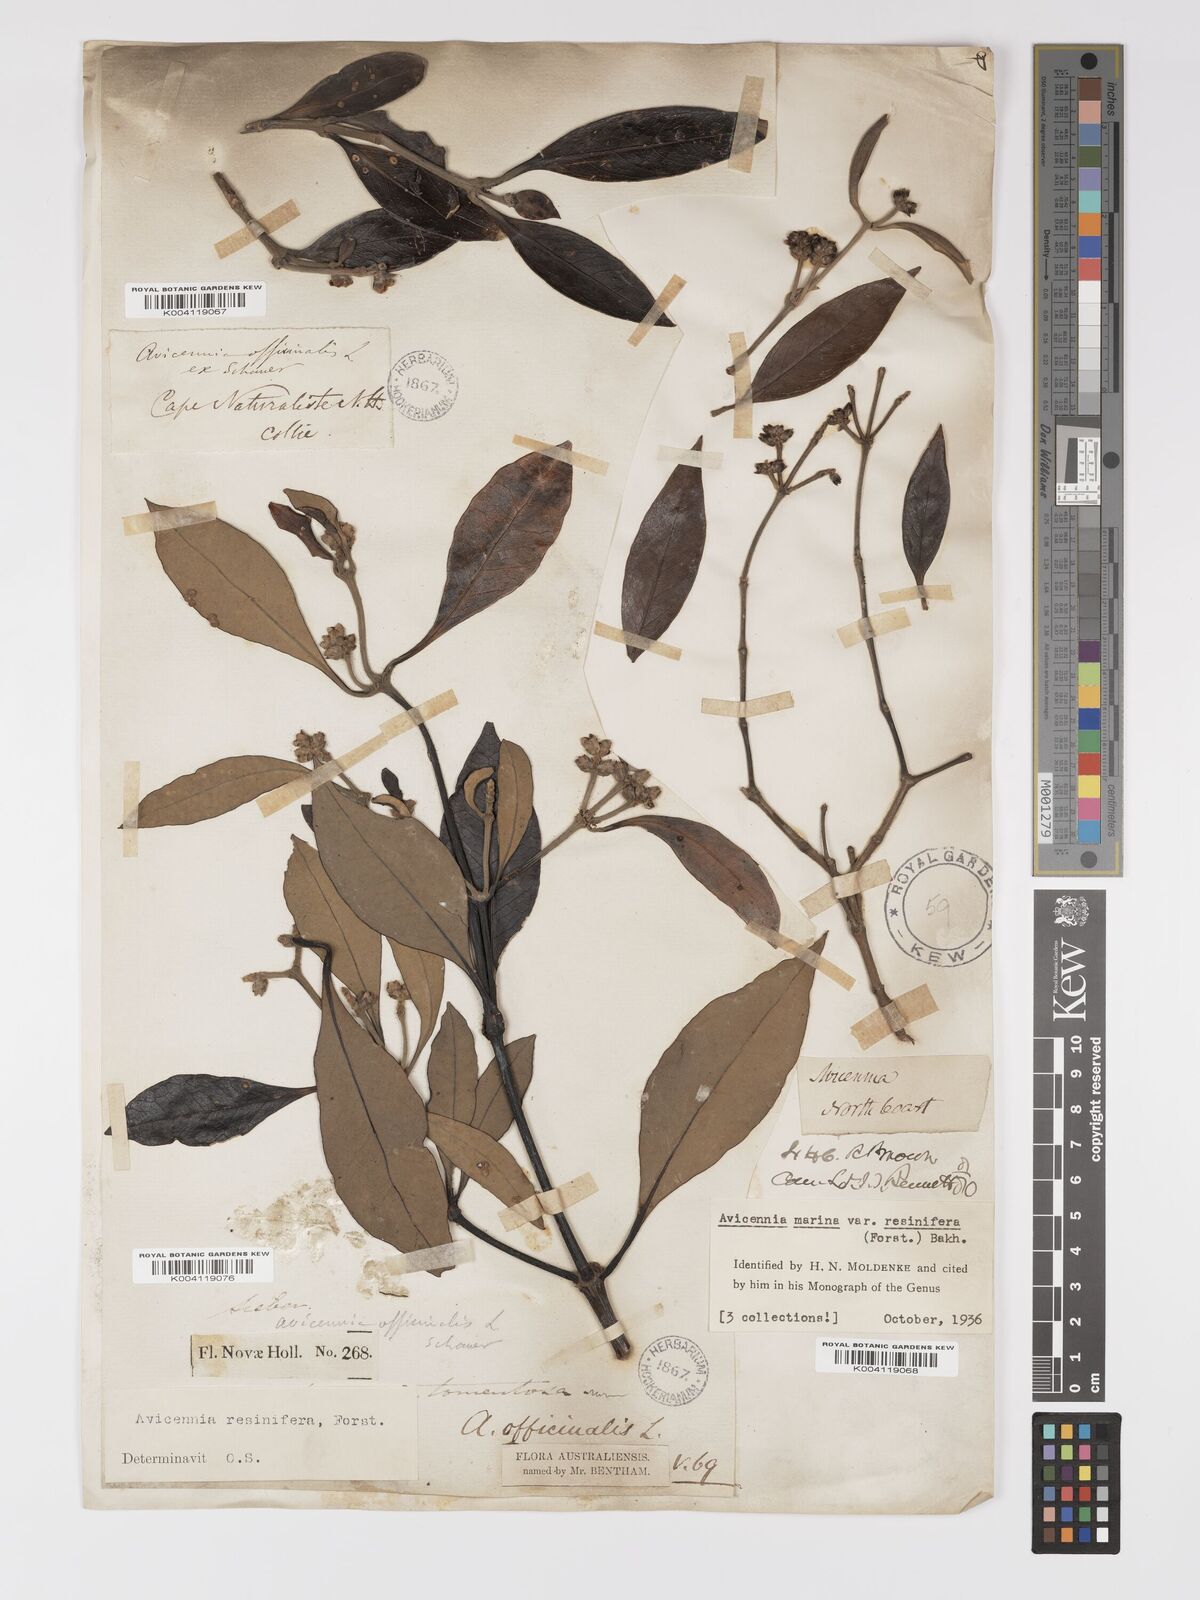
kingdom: Plantae
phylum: Tracheophyta
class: Magnoliopsida
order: Lamiales
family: Acanthaceae
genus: Avicennia
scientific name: Avicennia marina
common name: Gray mangrove
